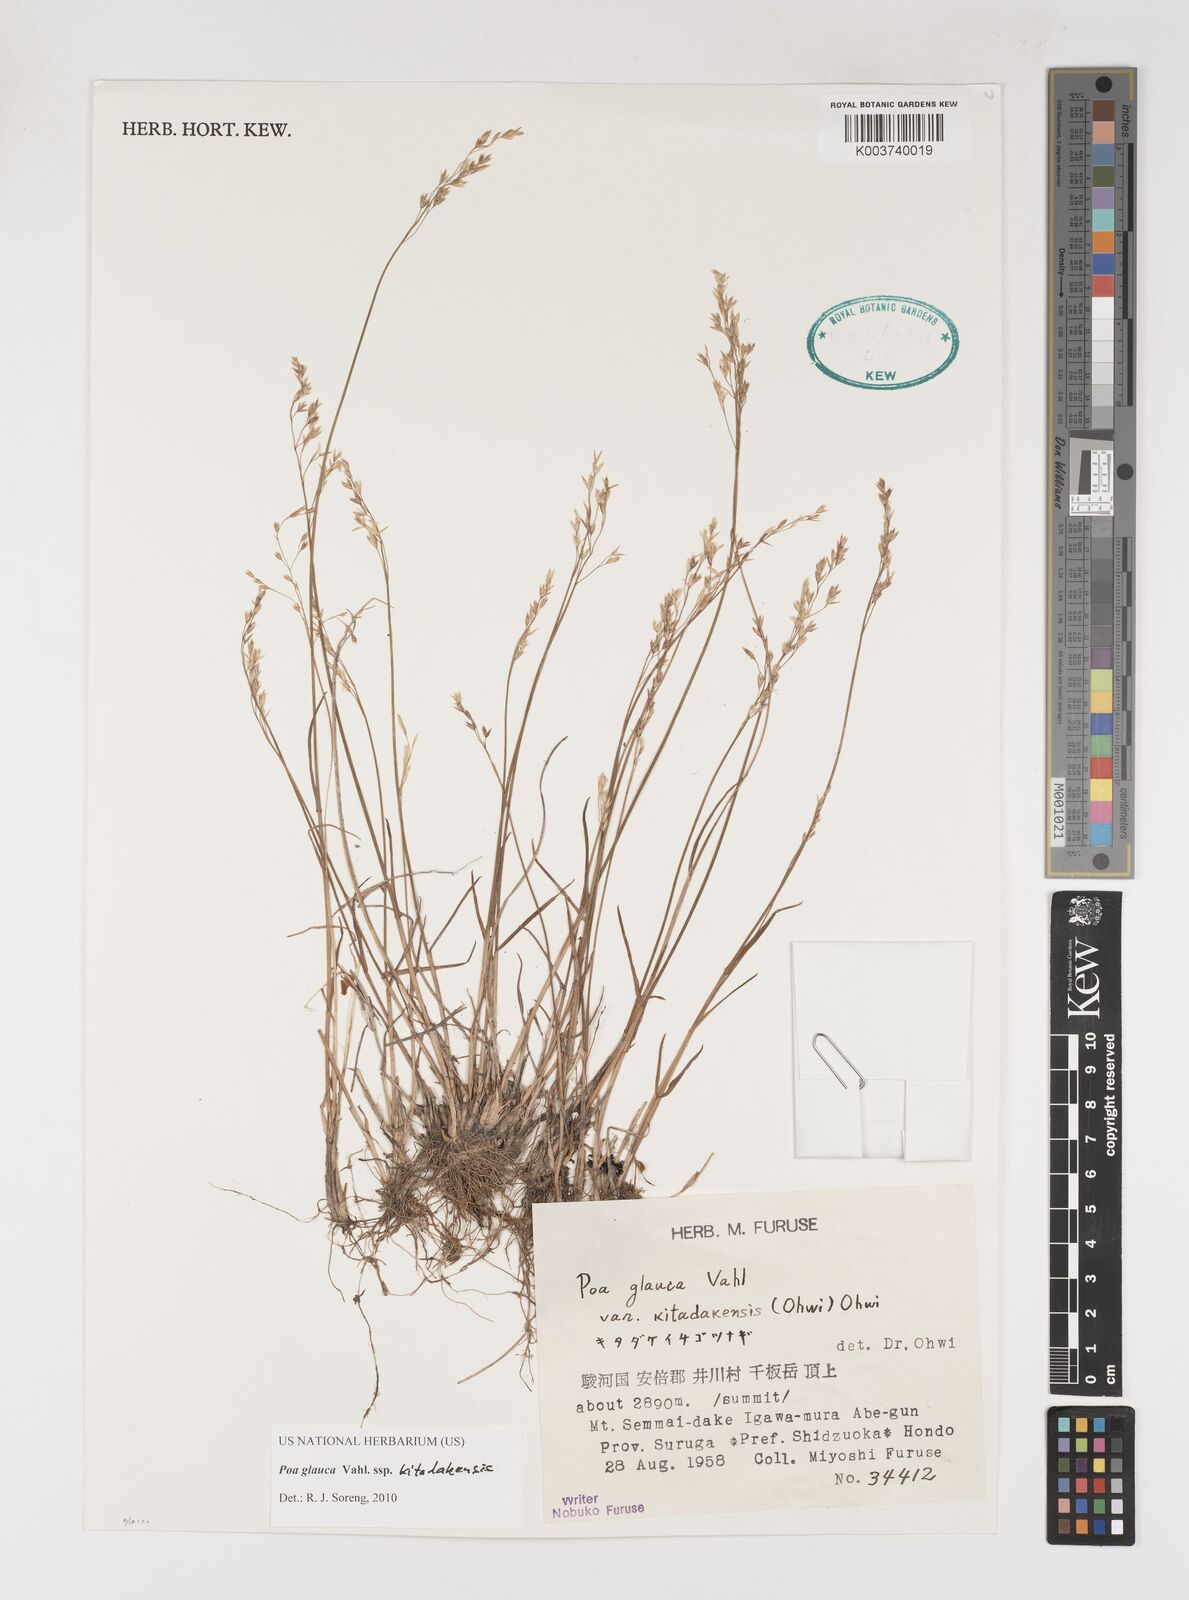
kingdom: Plantae
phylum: Tracheophyta
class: Liliopsida
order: Poales
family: Poaceae
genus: Poa
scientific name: Poa glauca
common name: Glaucous bluegrass
